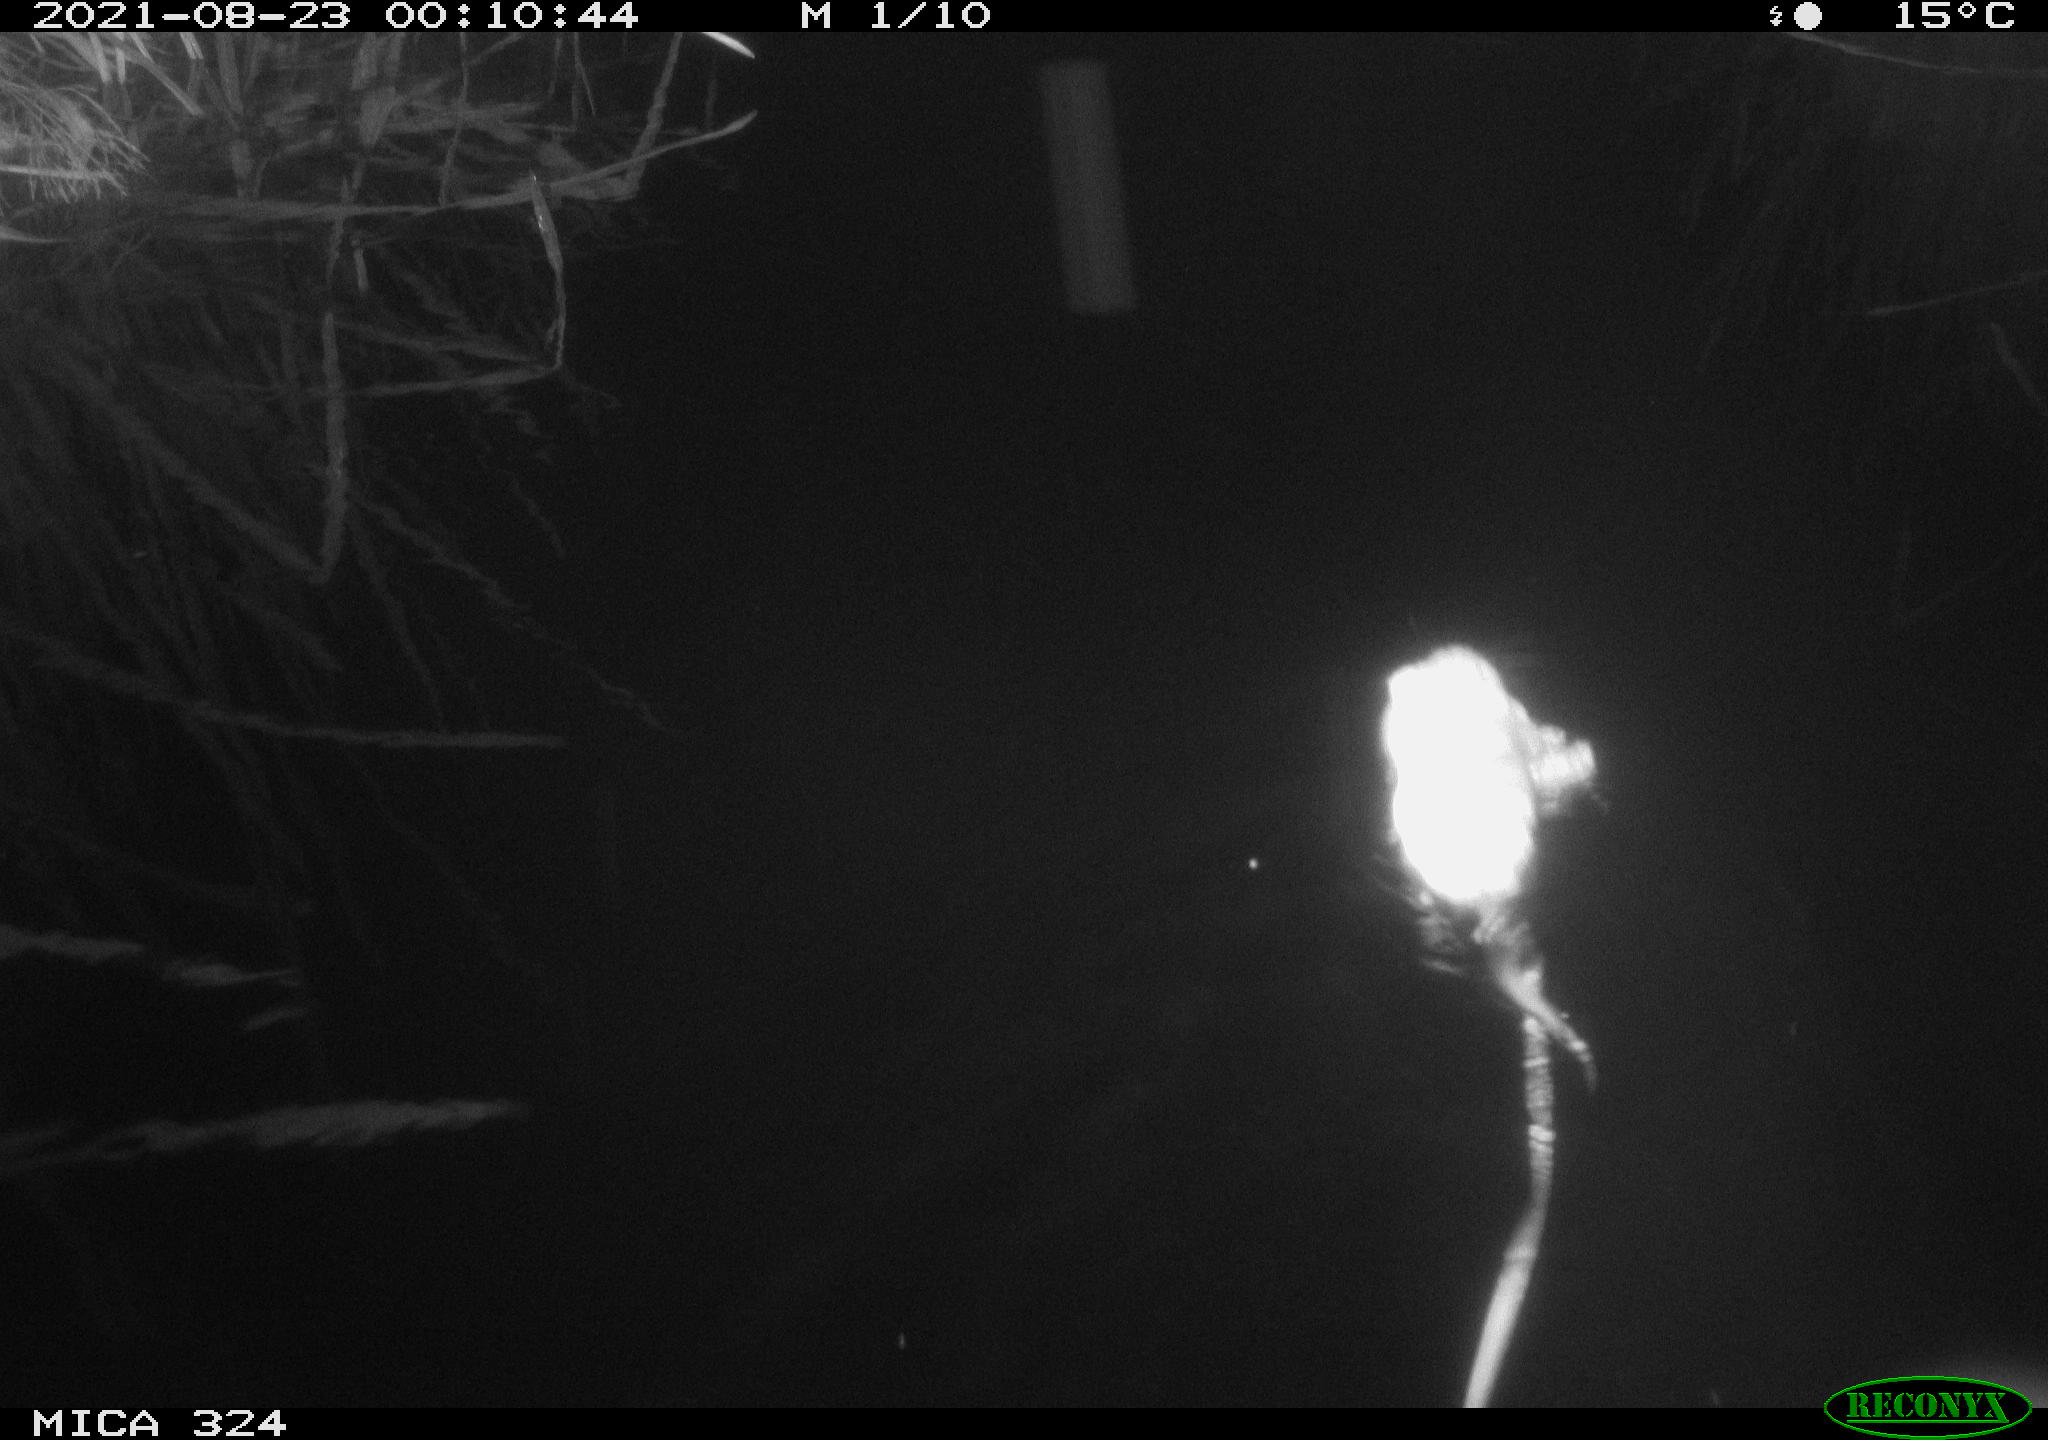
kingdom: Animalia
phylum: Chordata
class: Mammalia
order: Rodentia
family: Cricetidae
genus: Ondatra
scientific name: Ondatra zibethicus
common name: Muskrat
